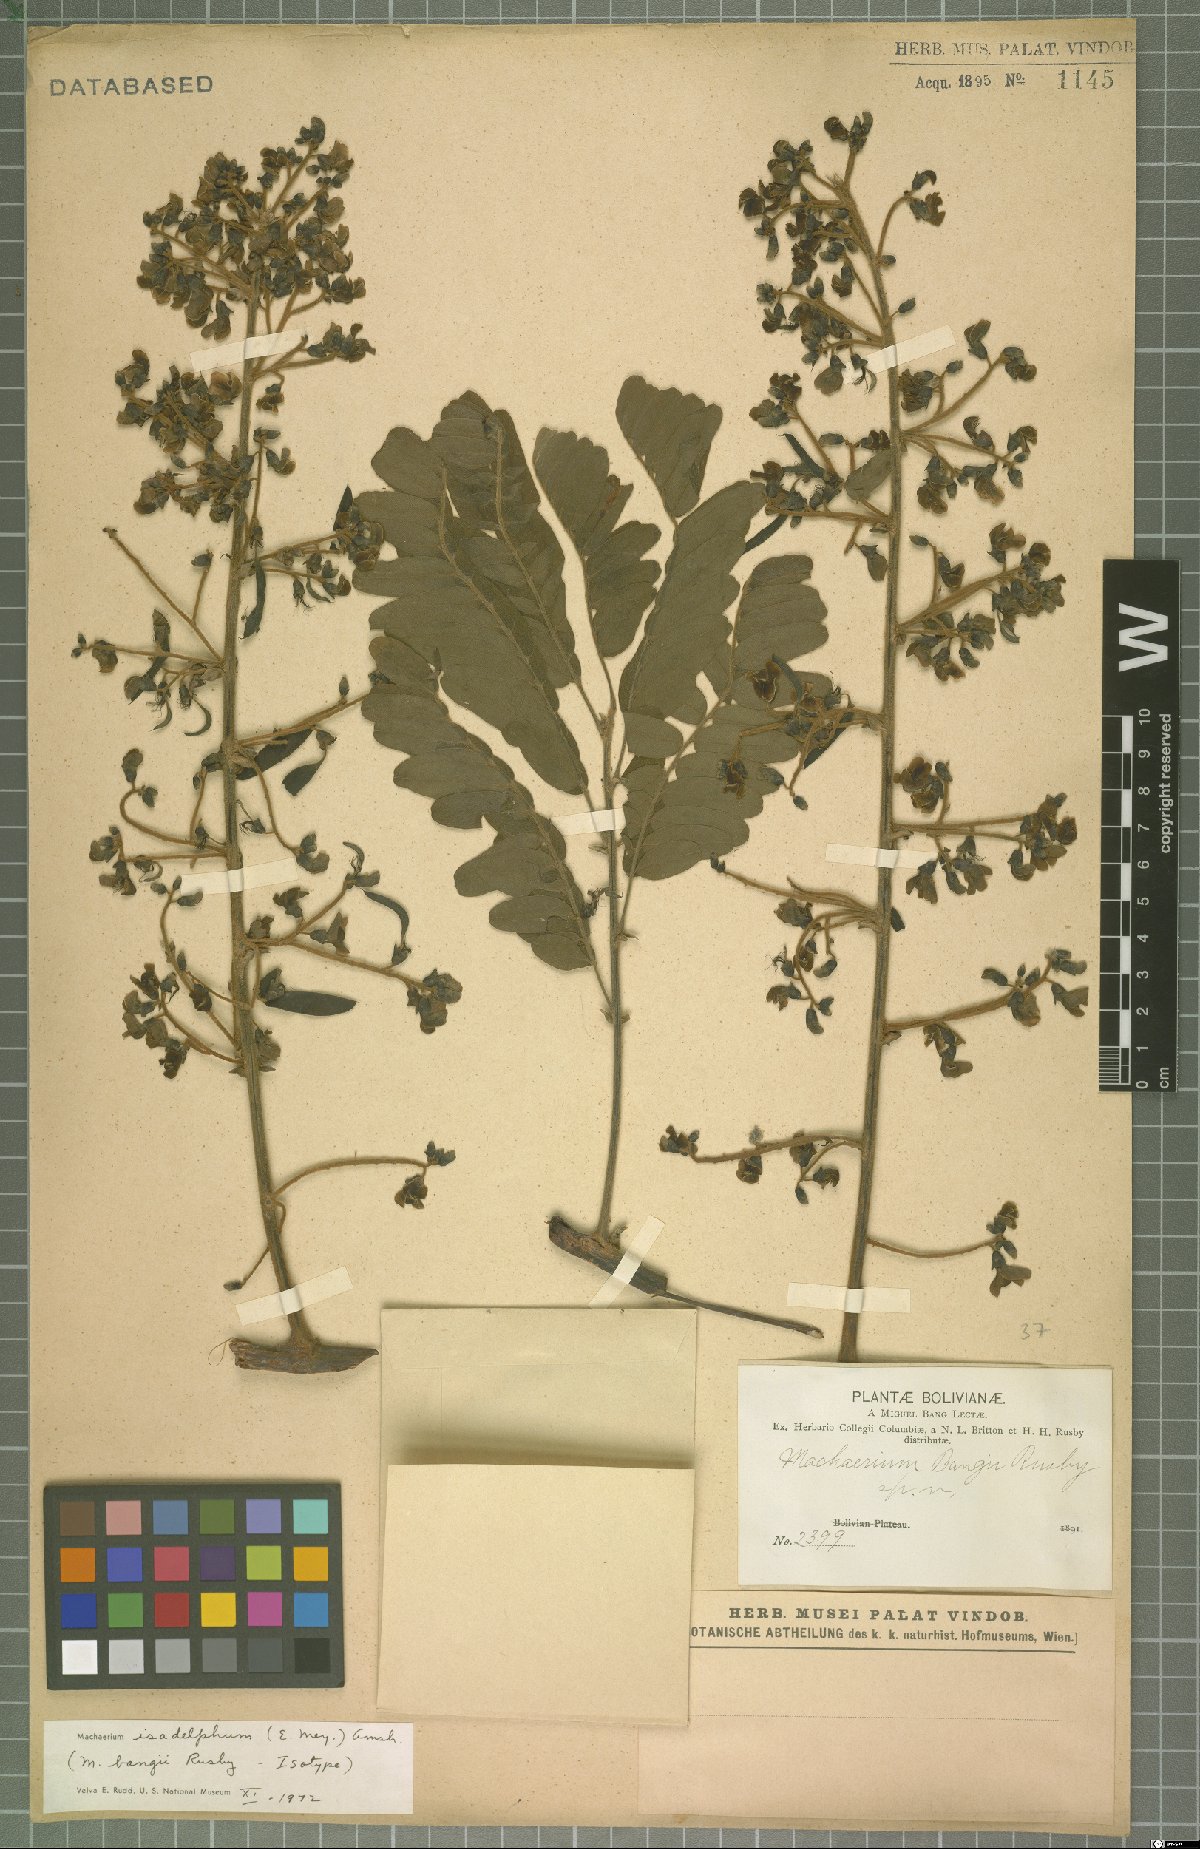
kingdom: Plantae
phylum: Tracheophyta
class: Magnoliopsida
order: Fabales
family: Fabaceae
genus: Machaerium
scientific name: Machaerium isadelphum
